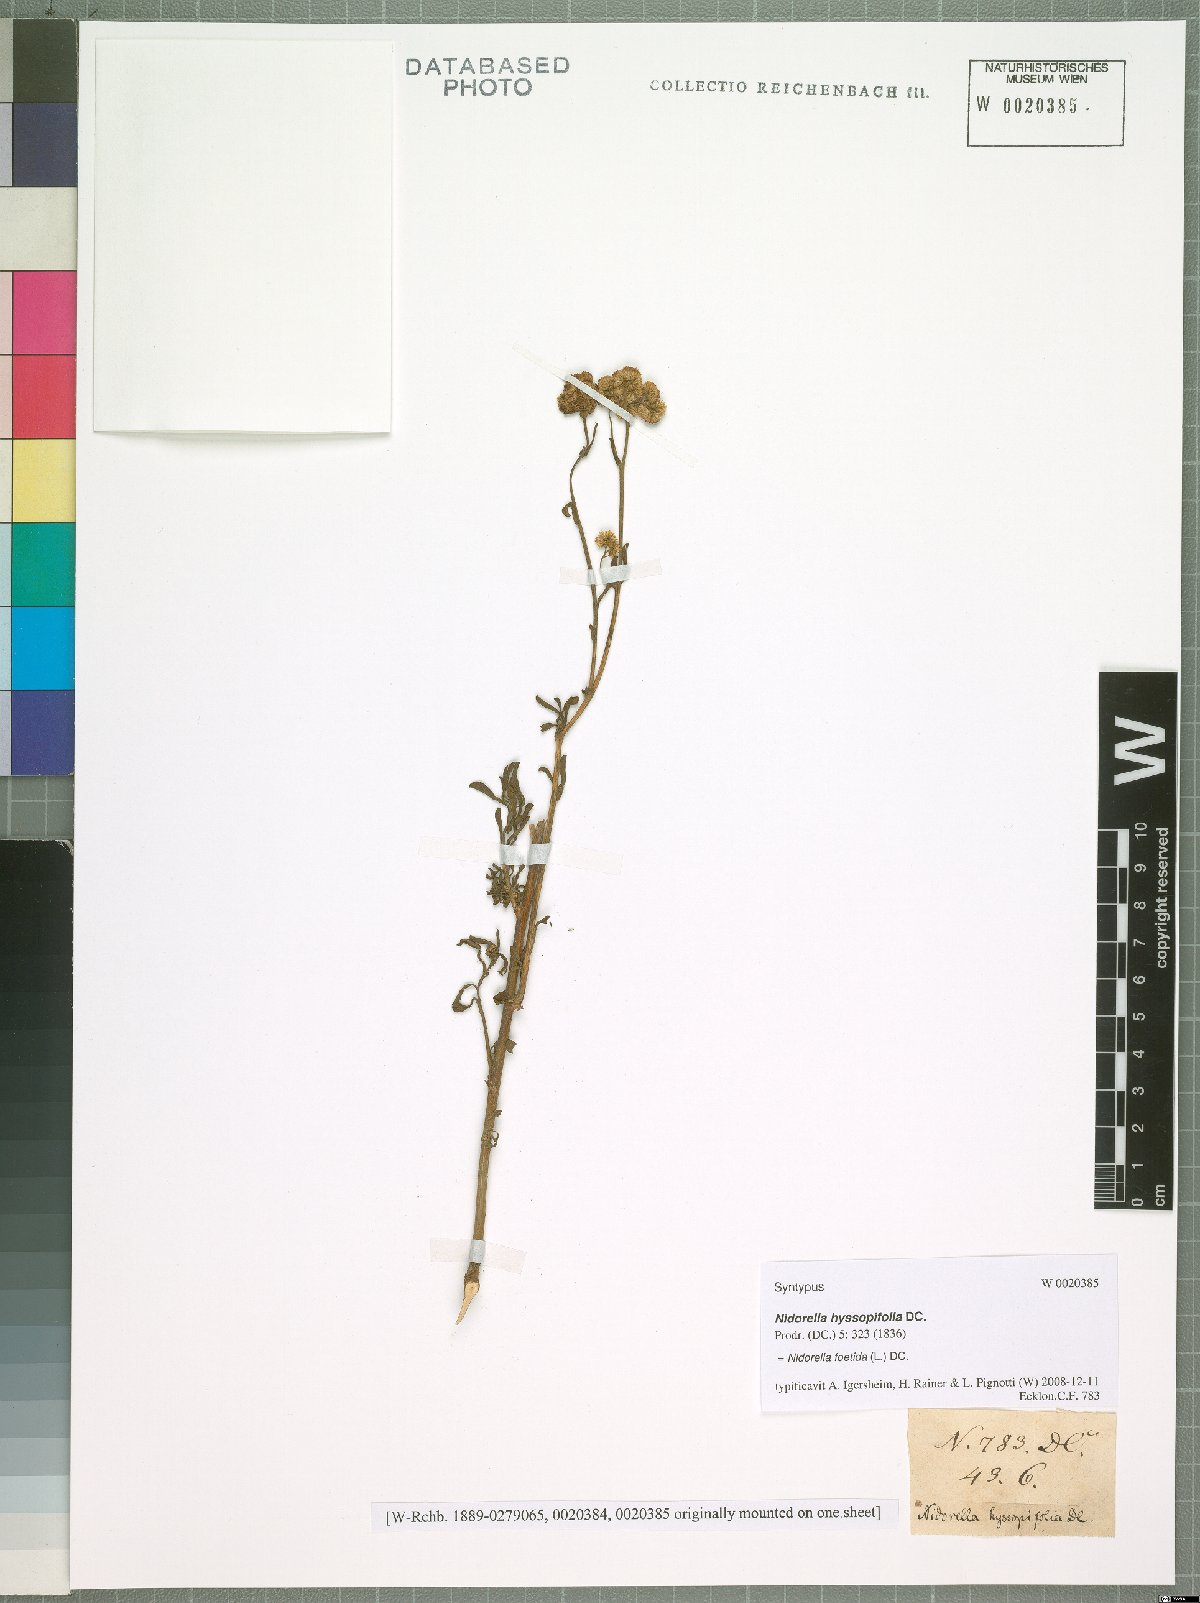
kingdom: Plantae
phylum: Tracheophyta
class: Magnoliopsida
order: Asterales
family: Asteraceae
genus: Nidorella
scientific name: Nidorella foetida
